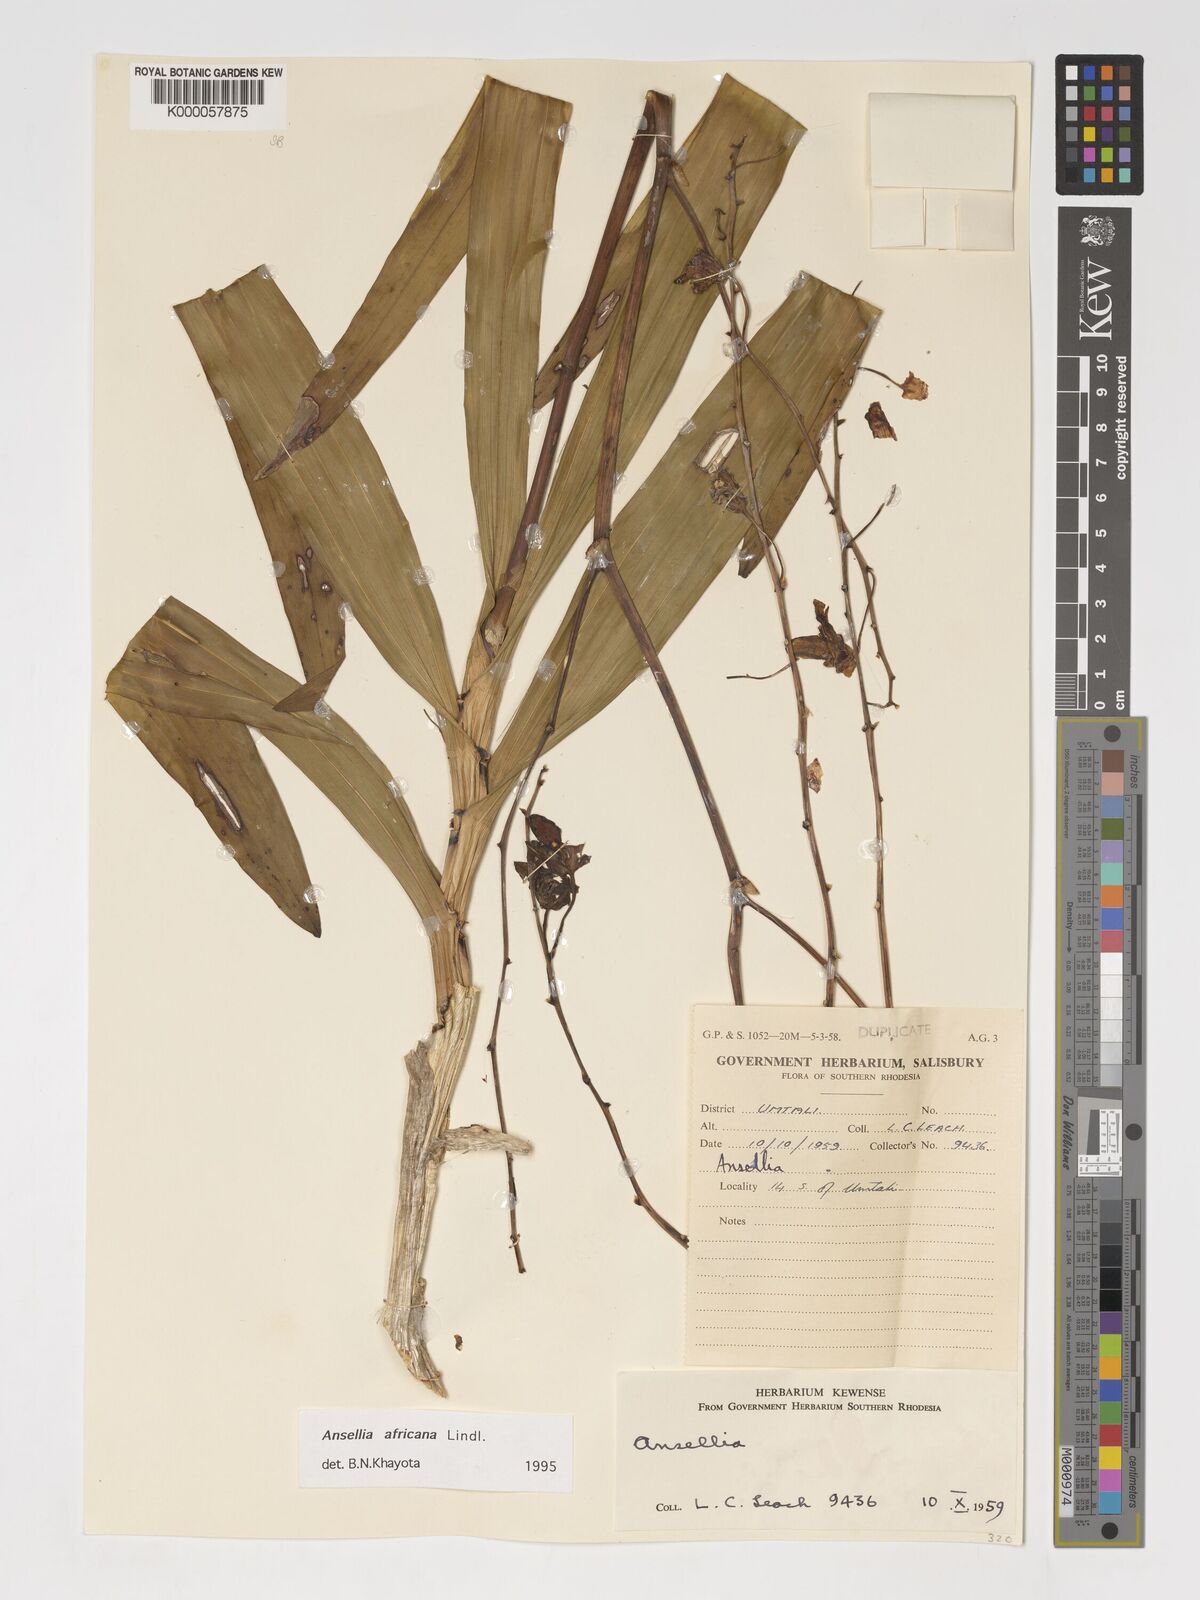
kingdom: Plantae
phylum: Tracheophyta
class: Liliopsida
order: Asparagales
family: Orchidaceae
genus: Ansellia
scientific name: Ansellia africana
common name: African ansellia
